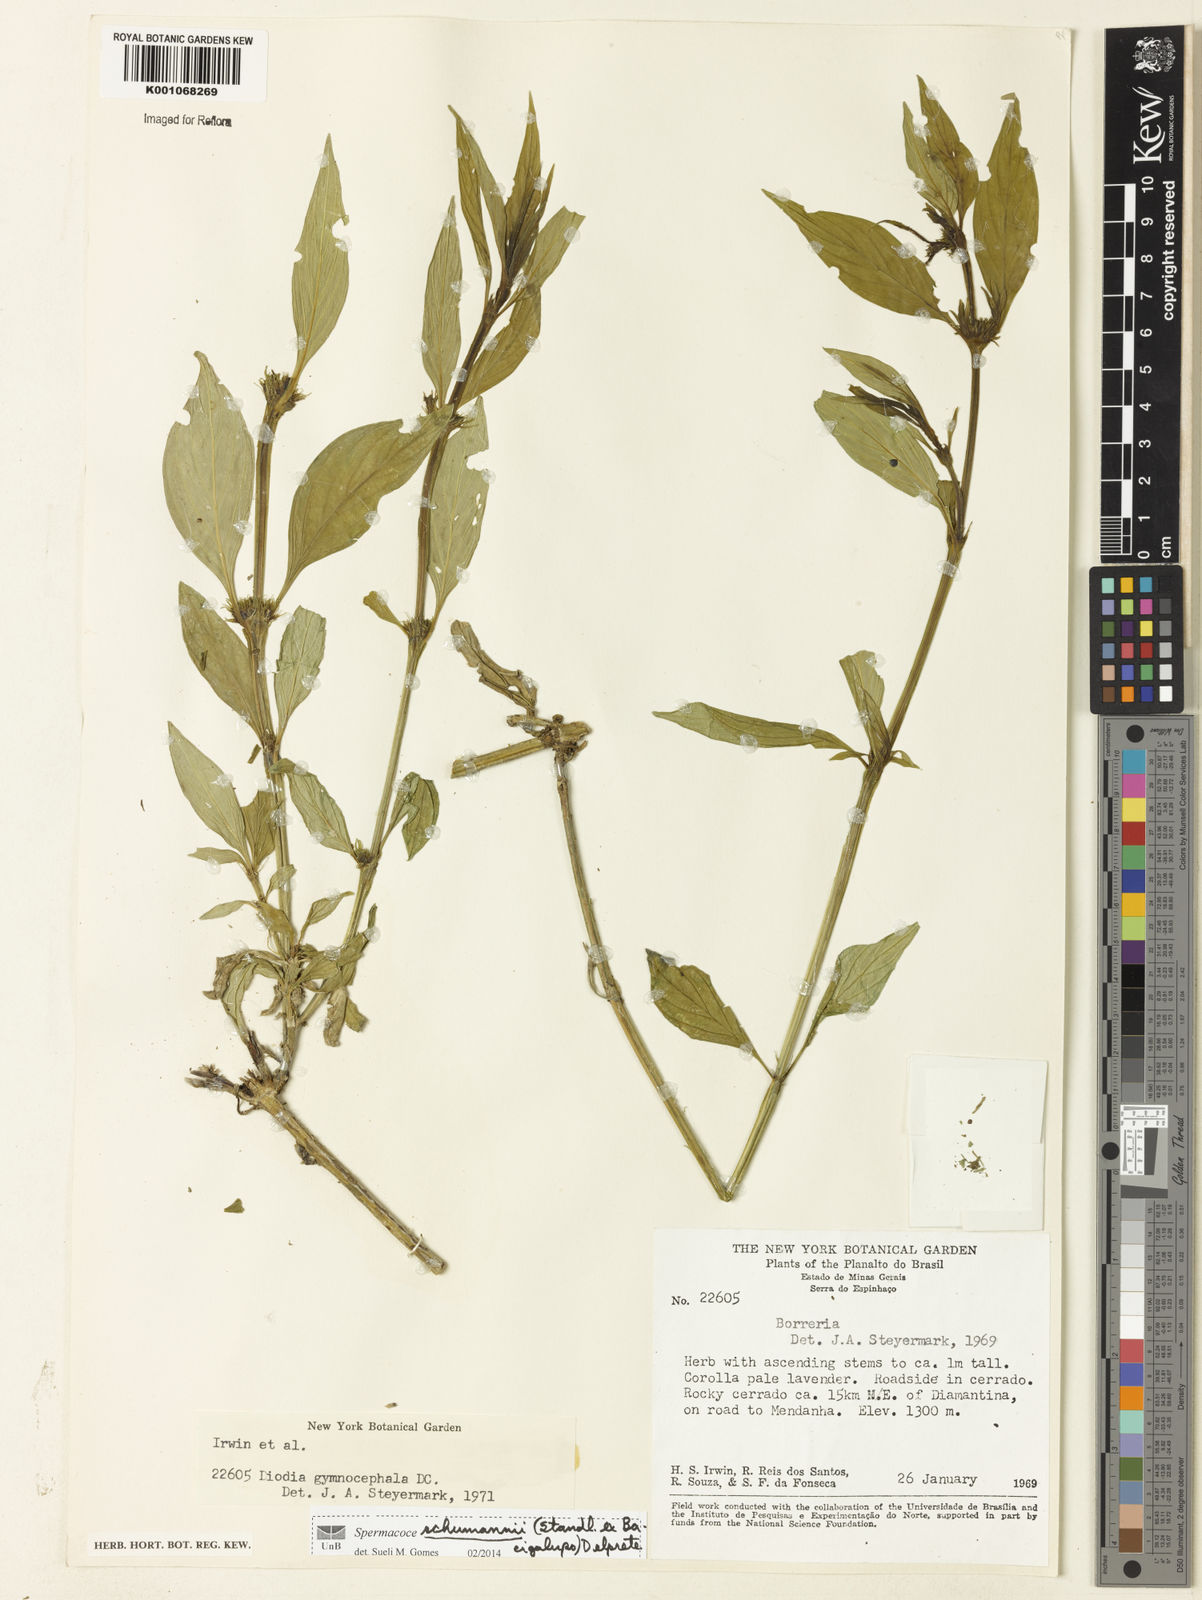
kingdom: Plantae
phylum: Tracheophyta
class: Magnoliopsida
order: Gentianales
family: Rubiaceae
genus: Spermacoce
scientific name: Spermacoce schumannii
